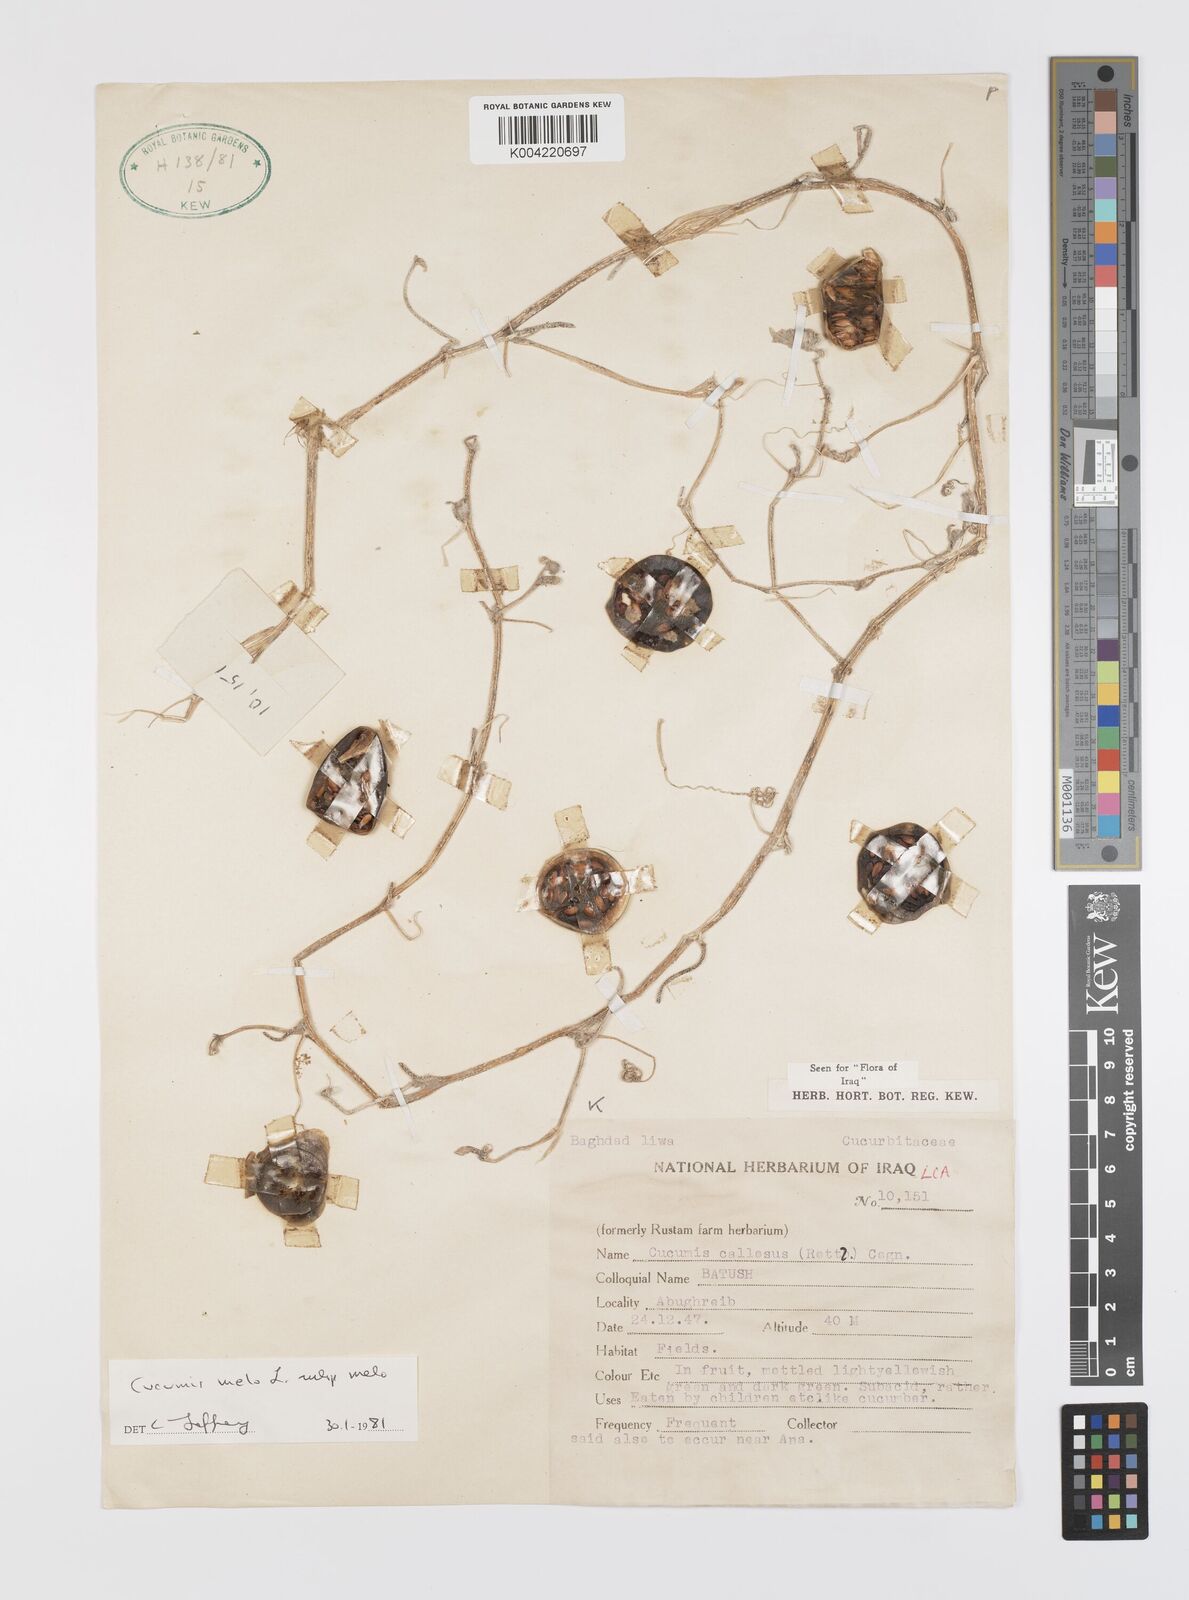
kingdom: Plantae
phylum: Tracheophyta
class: Magnoliopsida
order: Cucurbitales
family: Cucurbitaceae
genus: Cucumis
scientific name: Cucumis melo
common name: Melon
